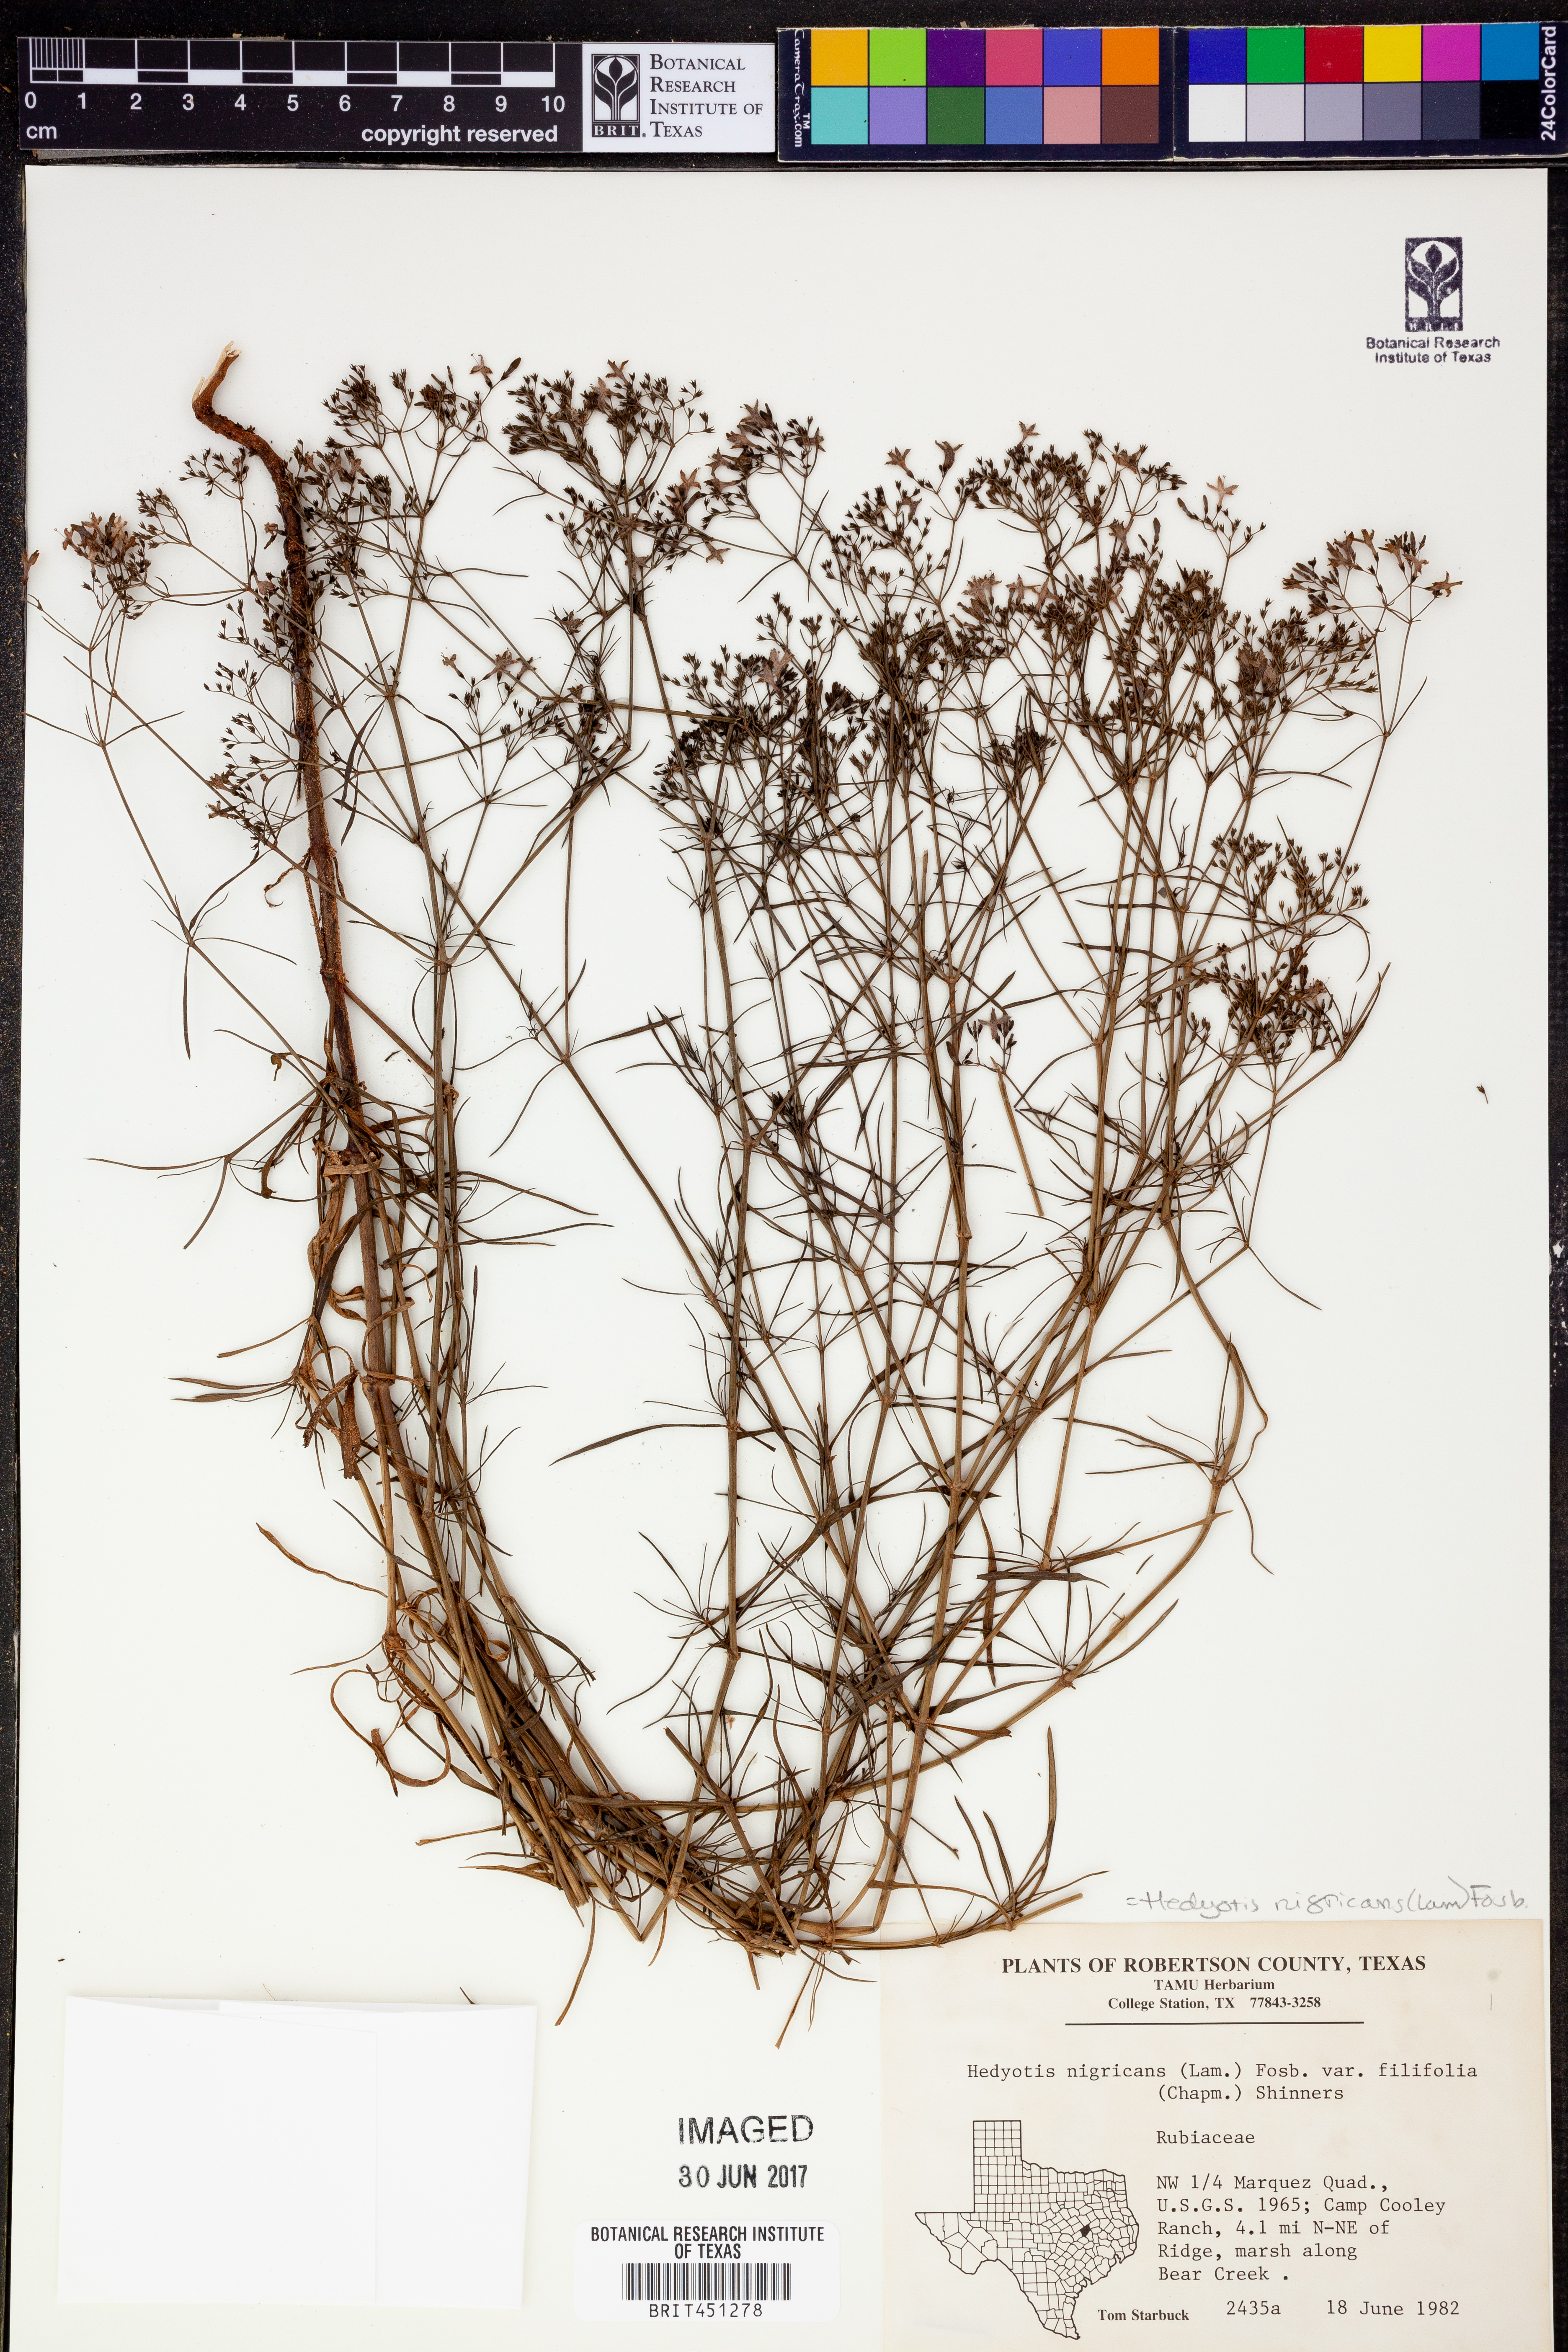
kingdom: Plantae
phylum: Tracheophyta
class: Magnoliopsida
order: Gentianales
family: Rubiaceae
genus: Stenaria
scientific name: Stenaria nigricans
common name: Diamondflowers
